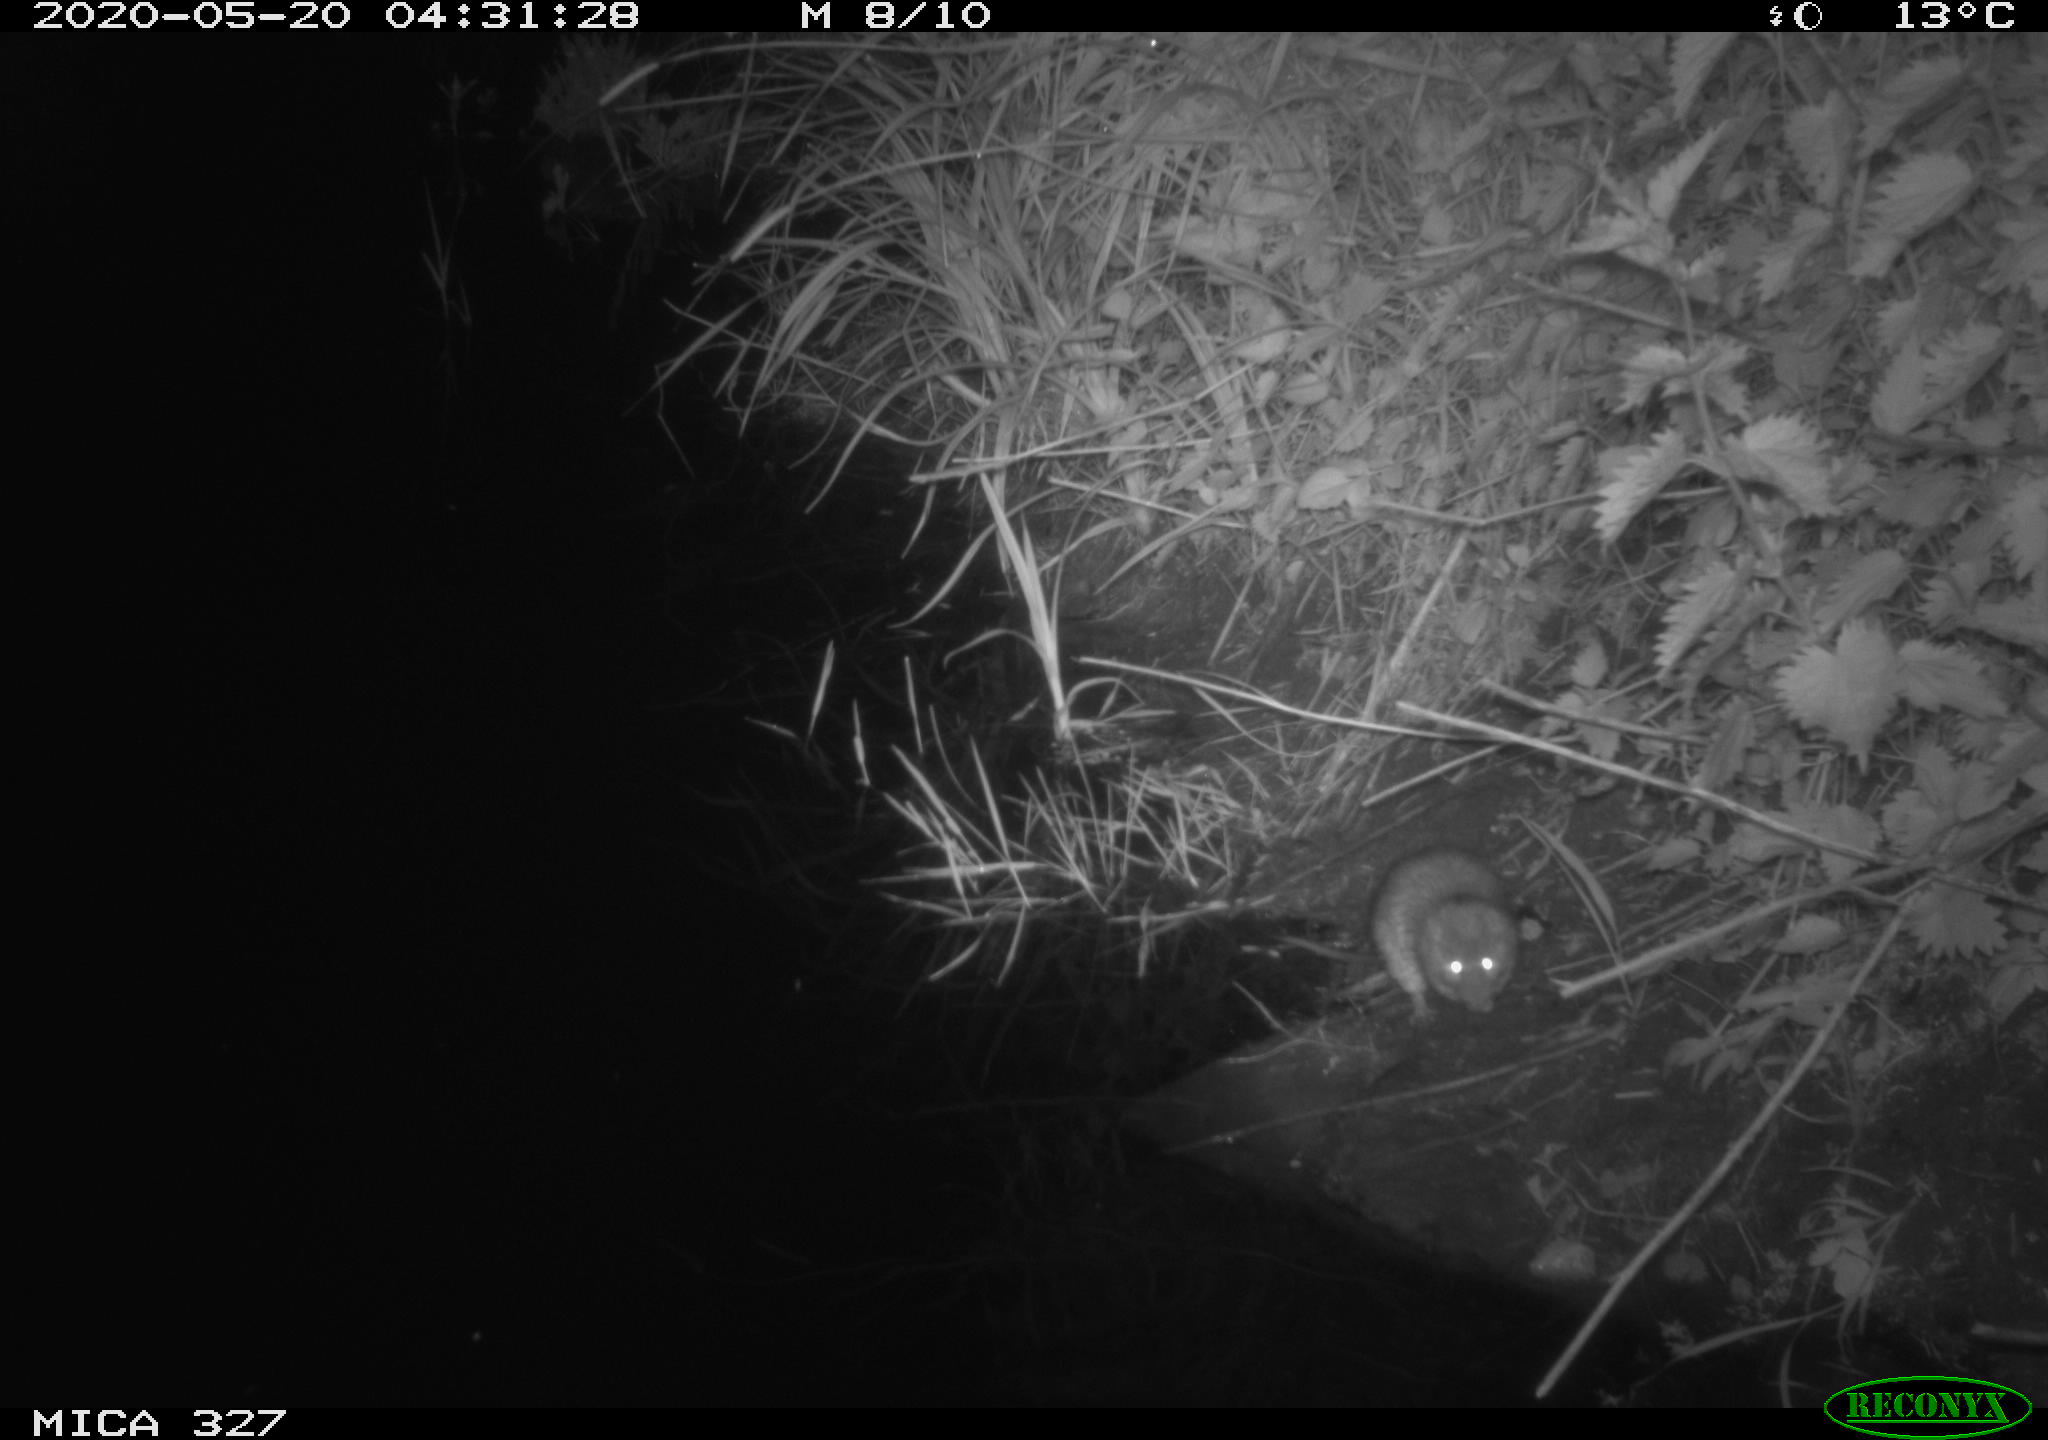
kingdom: Animalia
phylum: Chordata
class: Mammalia
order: Rodentia
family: Muridae
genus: Rattus
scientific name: Rattus norvegicus
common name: Brown rat
